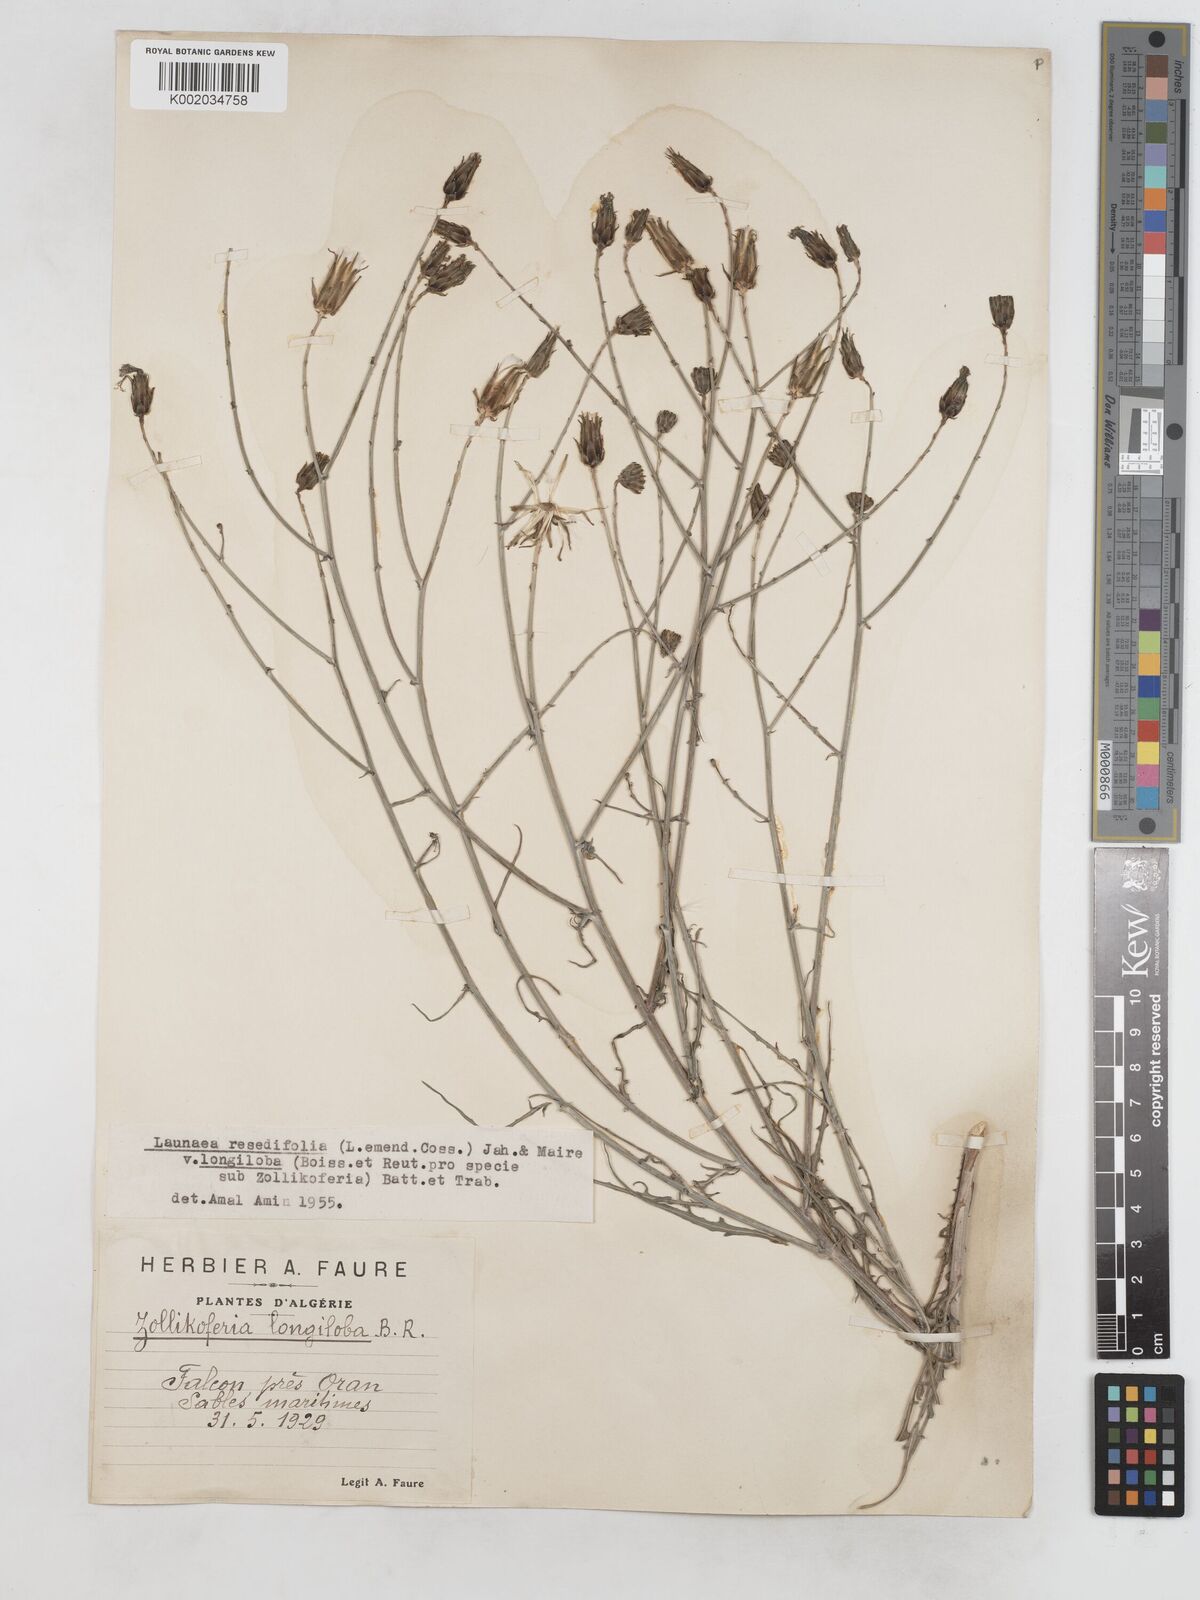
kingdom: Plantae
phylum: Tracheophyta
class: Magnoliopsida
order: Asterales
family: Asteraceae
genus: Launaea
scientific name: Launaea
